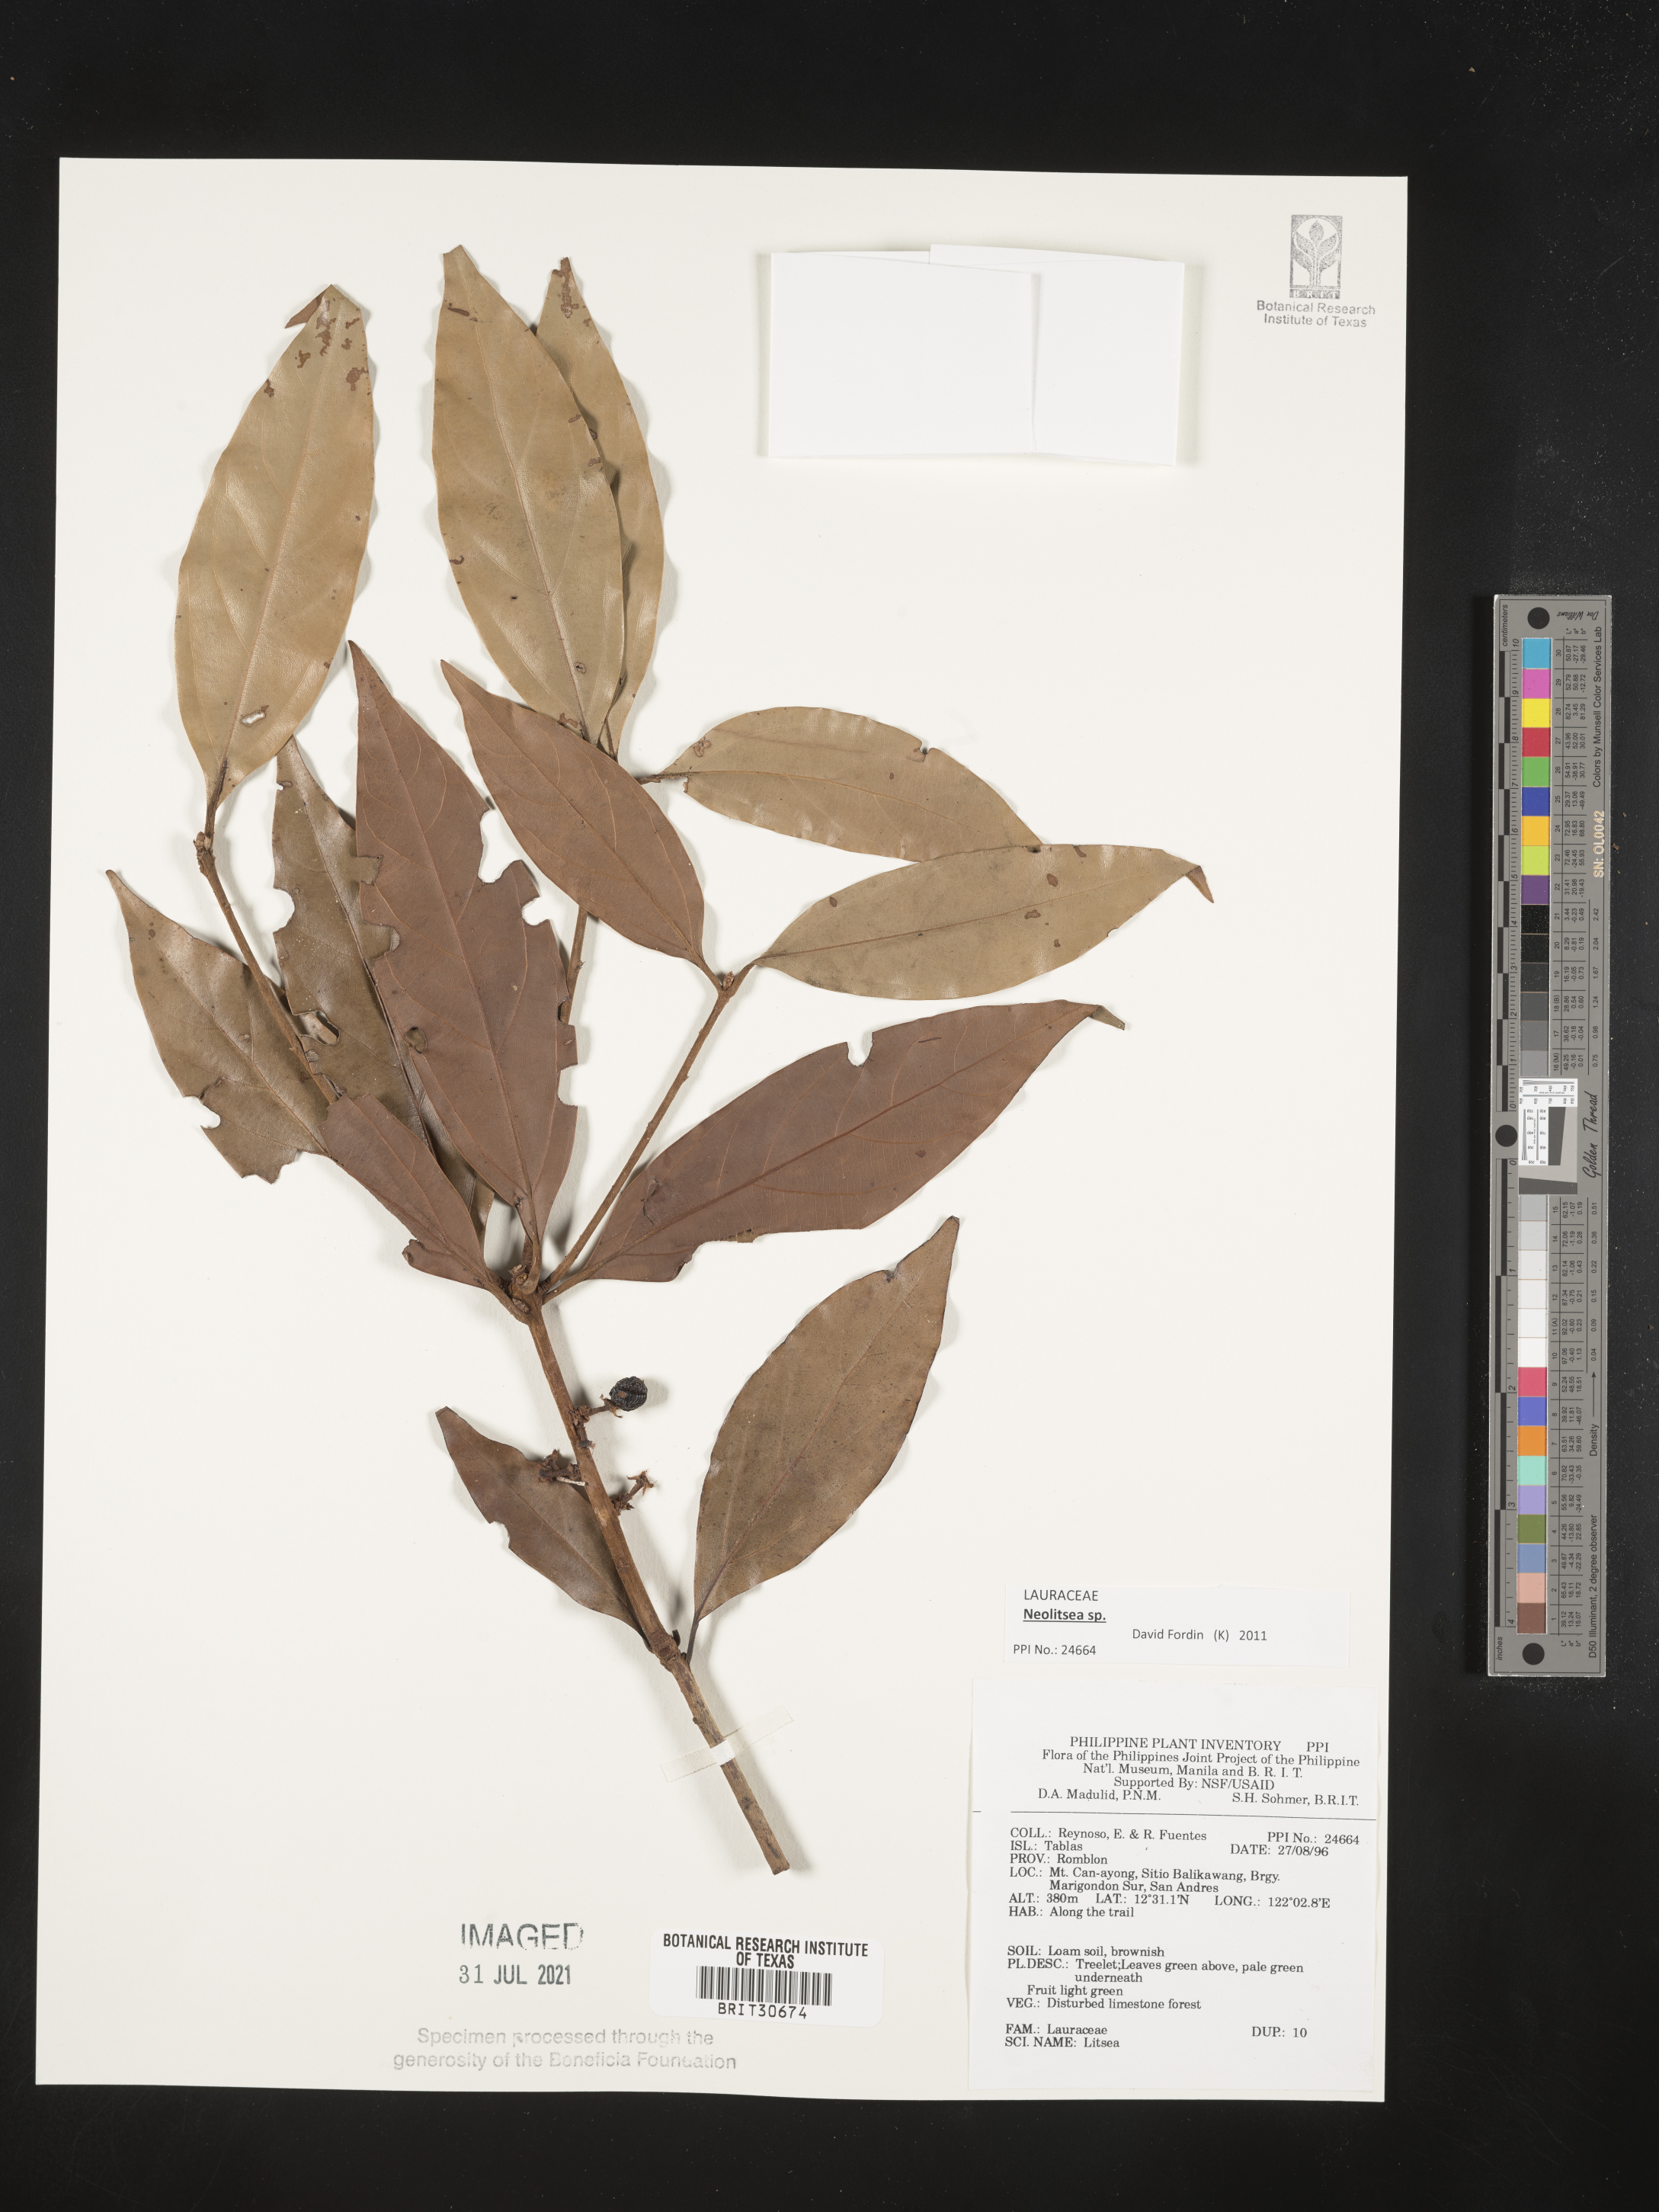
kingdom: Plantae
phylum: Tracheophyta
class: Magnoliopsida
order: Laurales
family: Lauraceae
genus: Litsea
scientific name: Litsea
